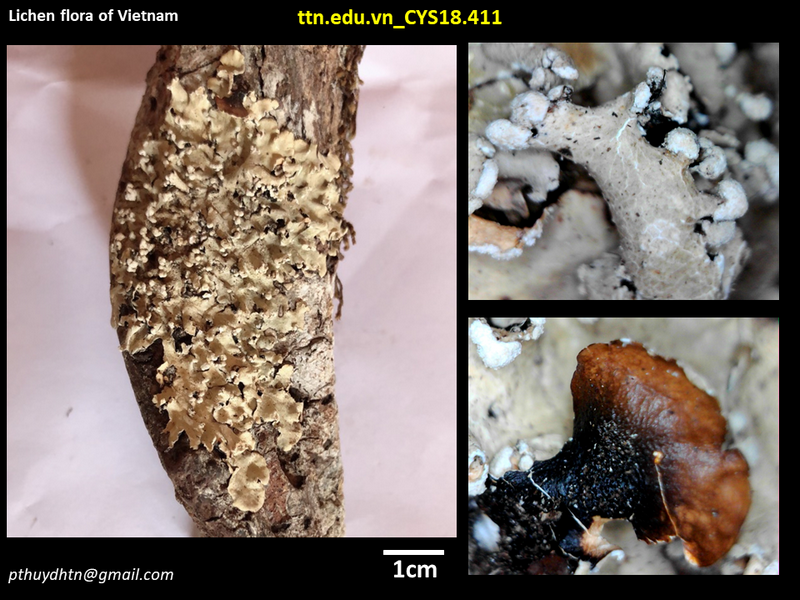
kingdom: Fungi
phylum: Ascomycota
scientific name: Ascomycota
